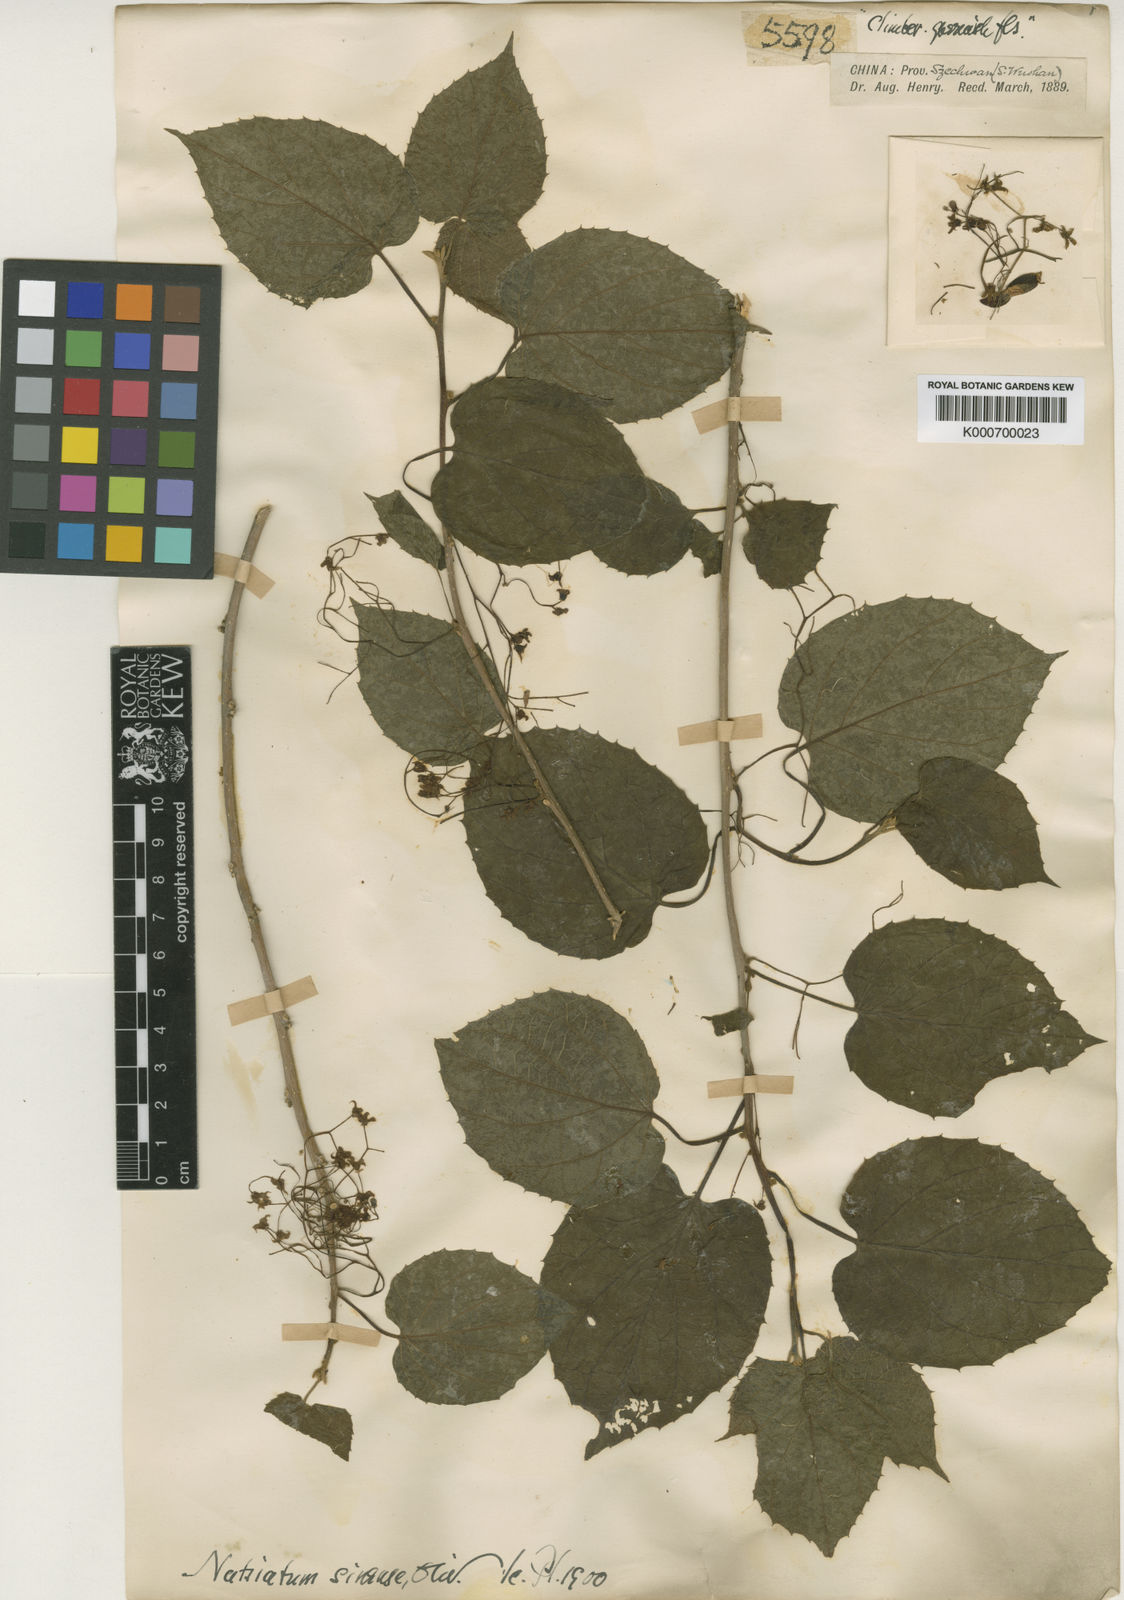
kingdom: Plantae
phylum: Tracheophyta
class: Magnoliopsida
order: Icacinales
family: Icacinaceae
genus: Hosiea
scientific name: Hosiea sinensis
